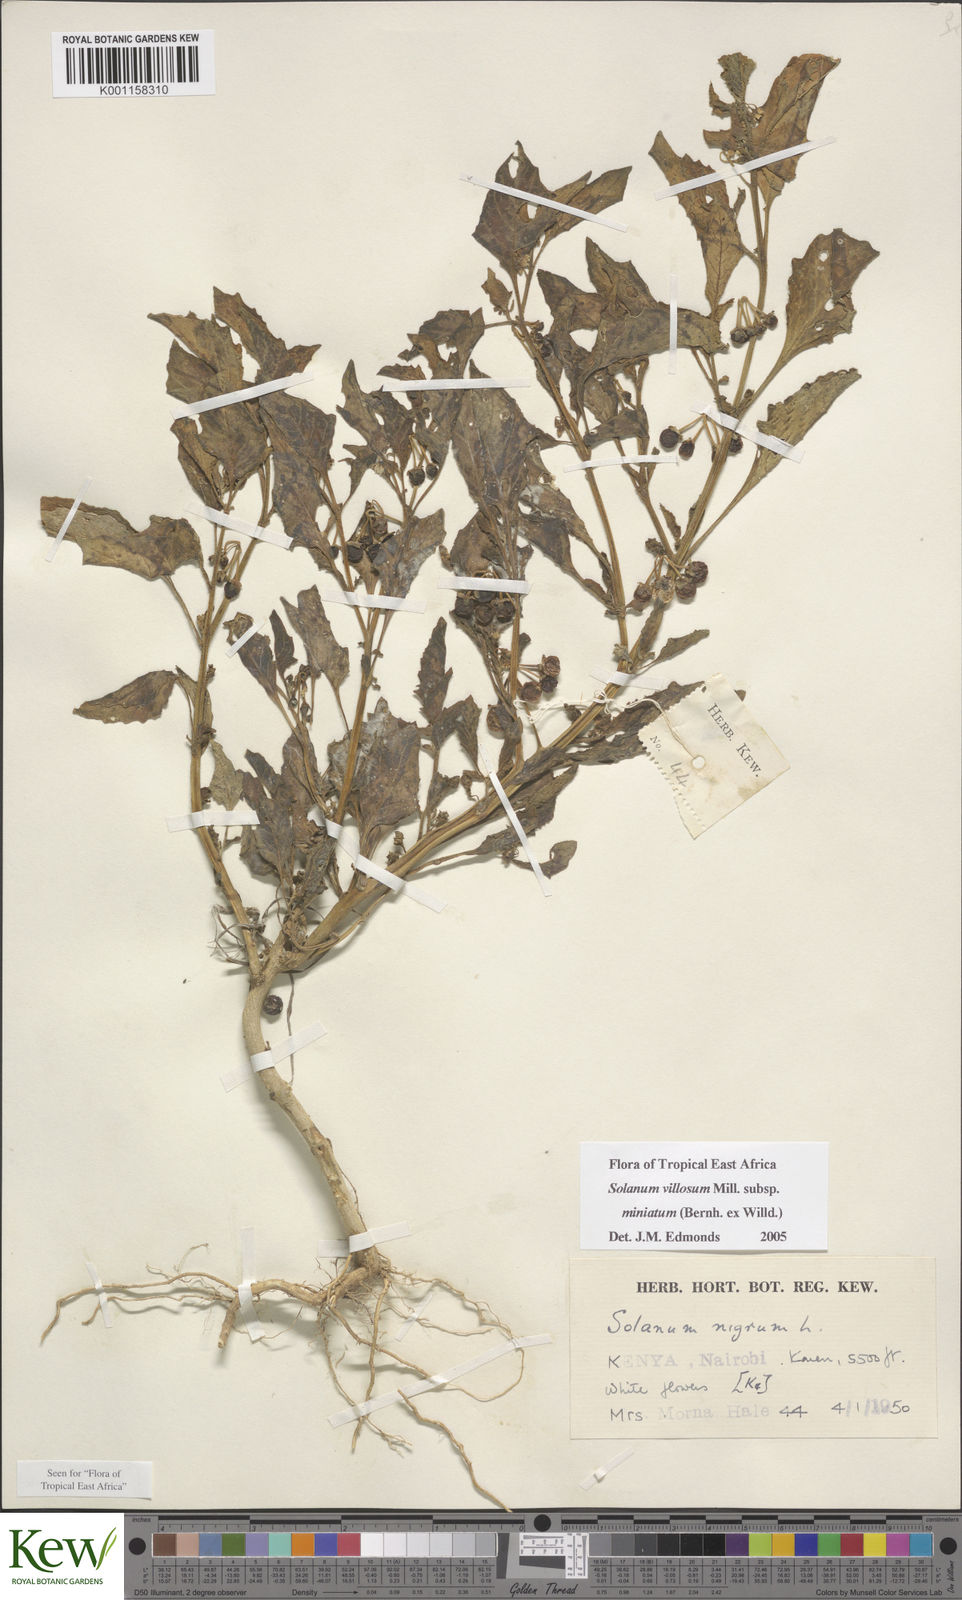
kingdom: Plantae
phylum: Tracheophyta
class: Magnoliopsida
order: Solanales
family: Solanaceae
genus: Solanum
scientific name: Solanum villosum
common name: Red nightshade
